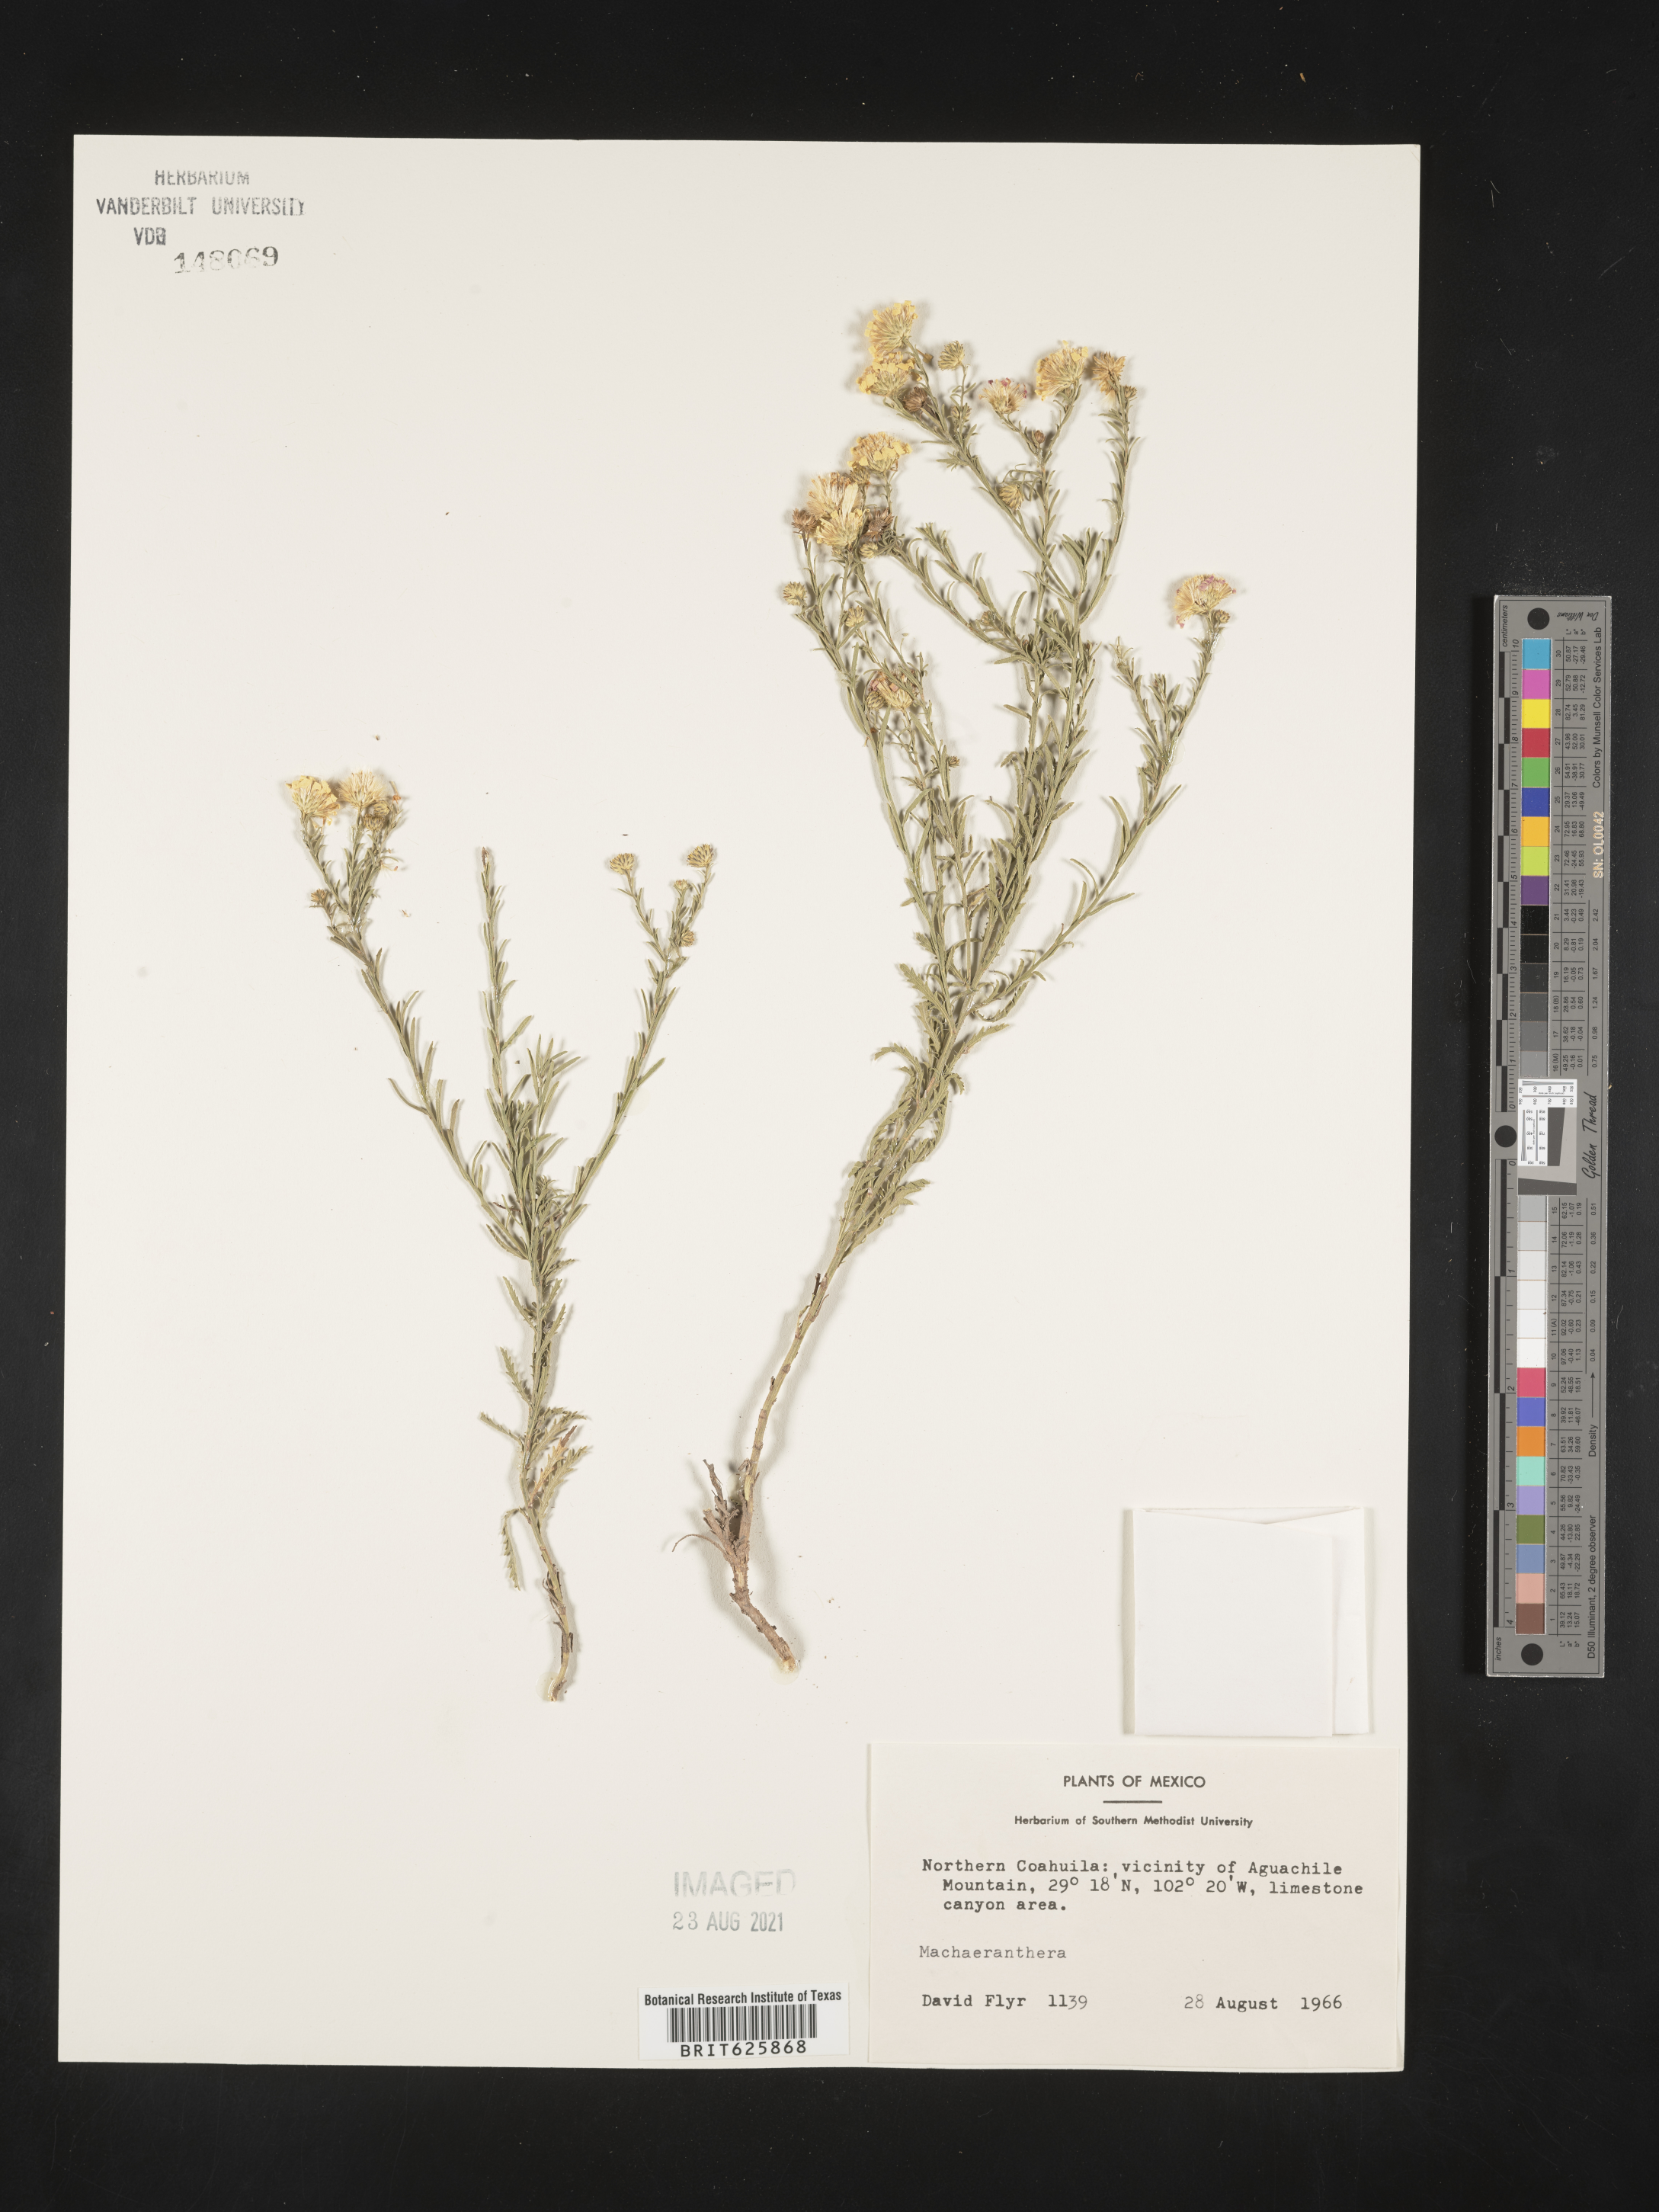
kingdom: Plantae
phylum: Tracheophyta
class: Magnoliopsida
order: Asterales
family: Asteraceae
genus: Machaeranthera
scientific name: Machaeranthera
